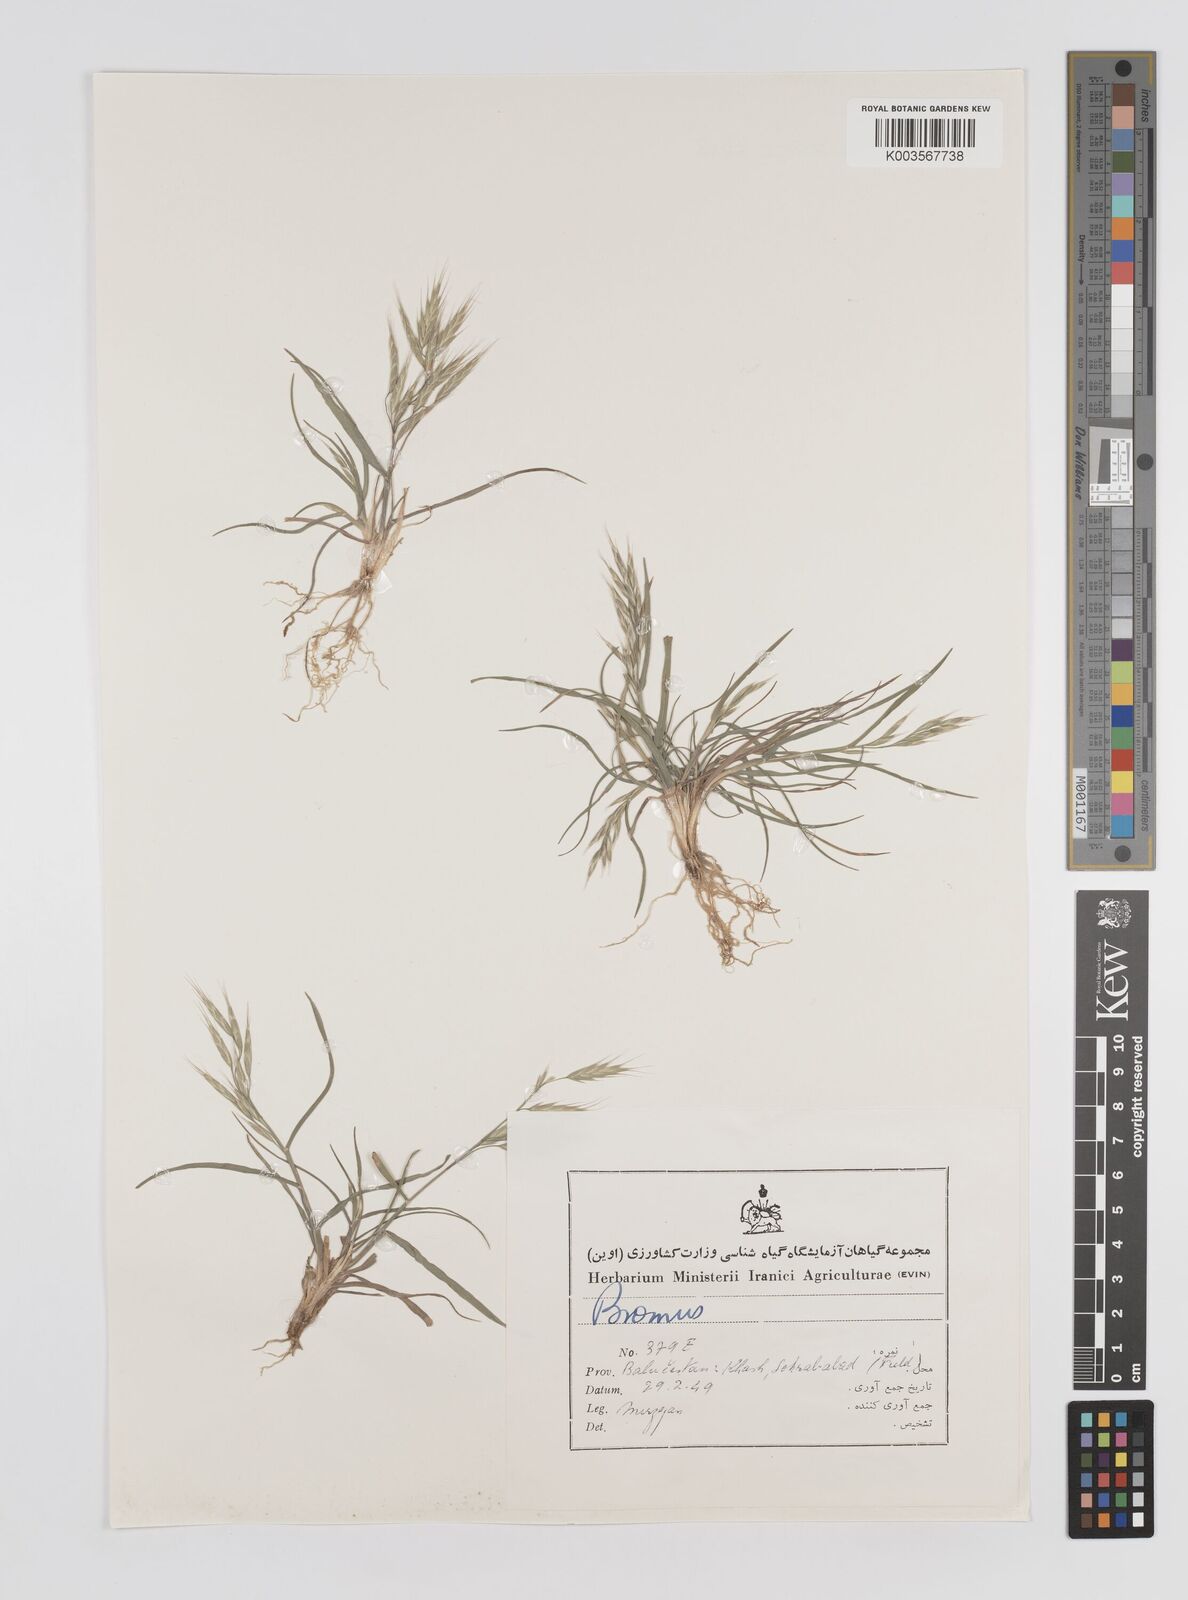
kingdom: Plantae
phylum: Tracheophyta
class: Liliopsida
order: Poales
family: Poaceae
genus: Bromus
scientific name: Bromus
